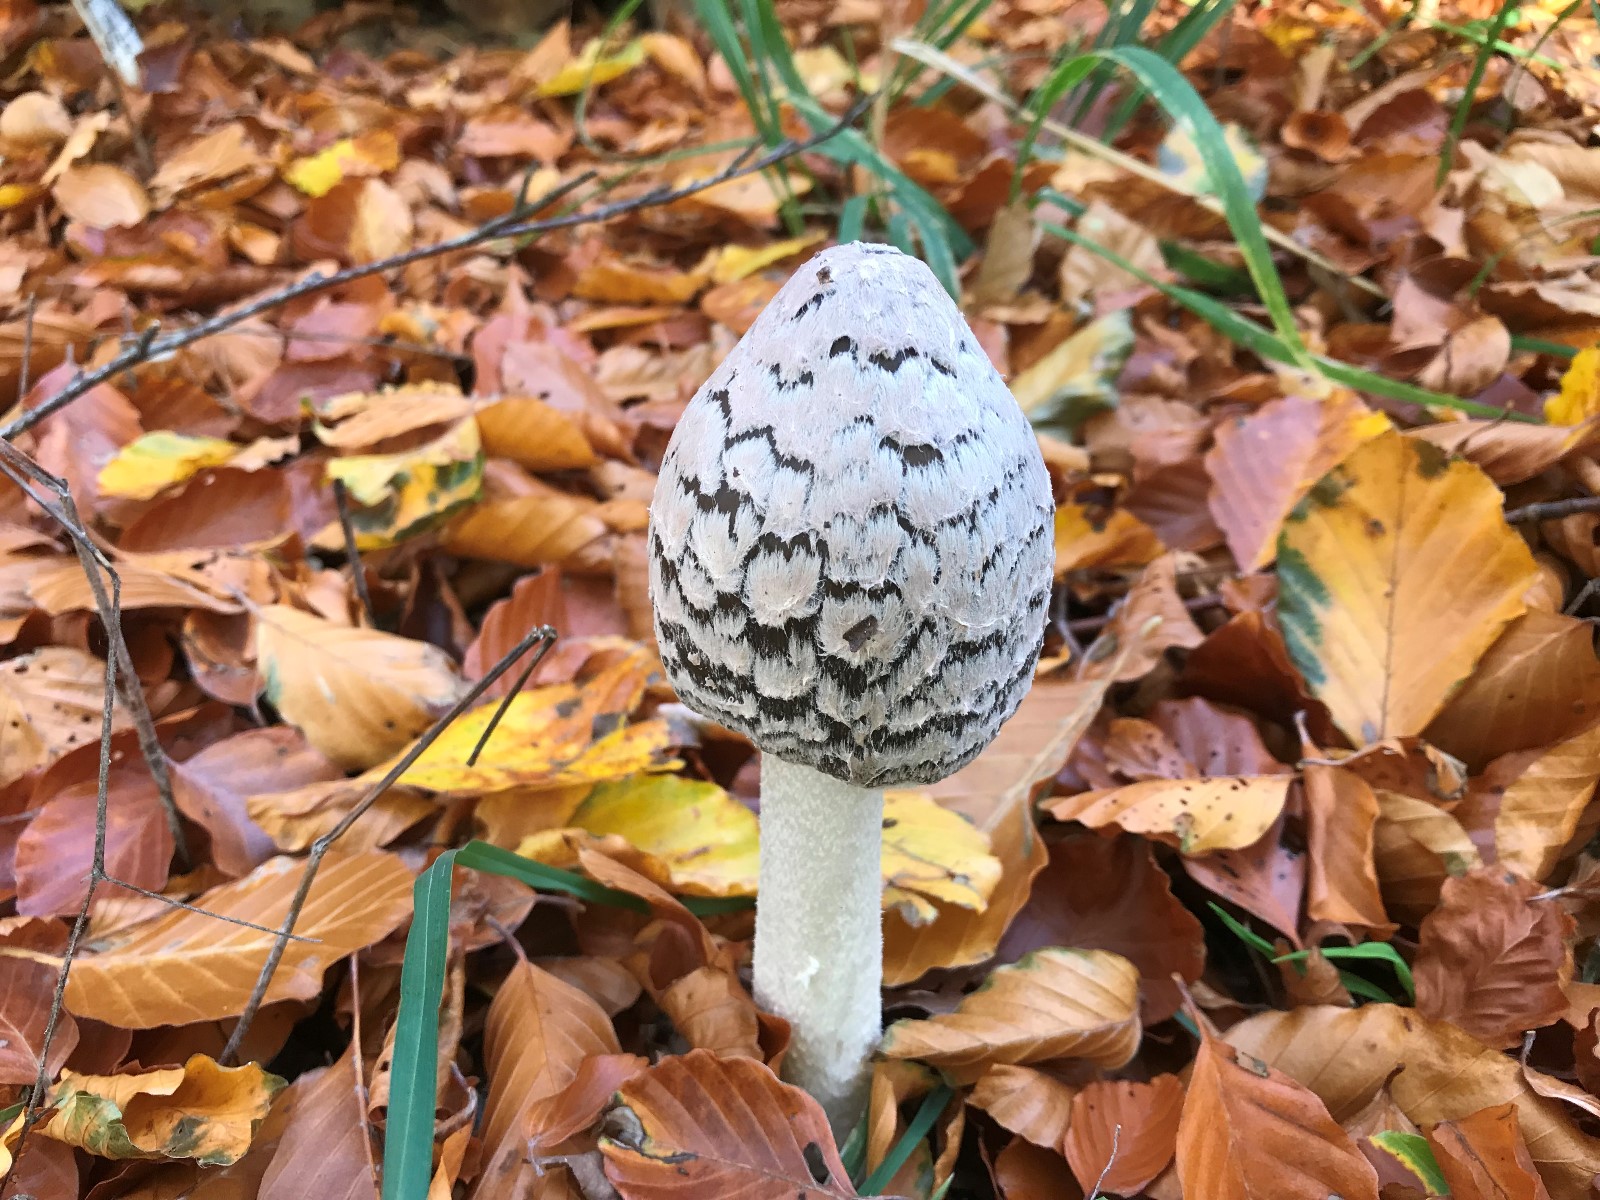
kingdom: Fungi
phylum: Basidiomycota
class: Agaricomycetes
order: Agaricales
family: Psathyrellaceae
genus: Coprinopsis
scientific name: Coprinopsis picacea
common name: skade-blækhat
